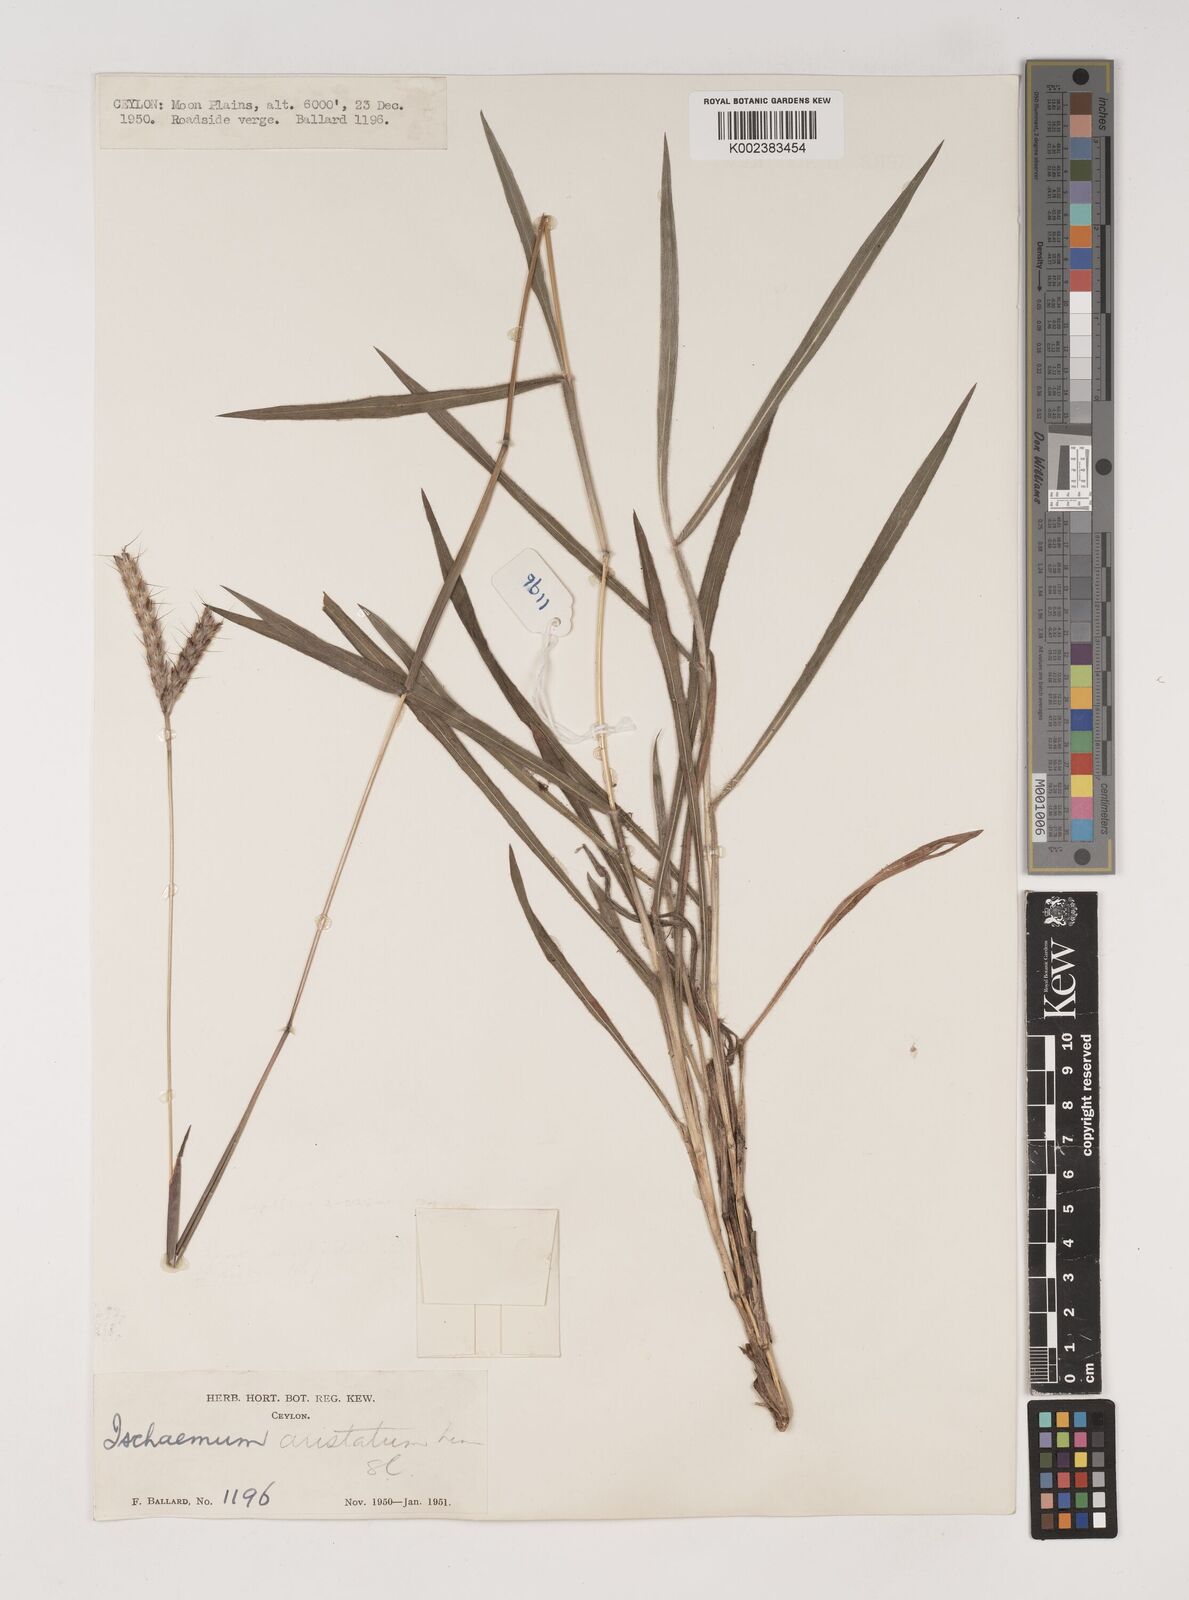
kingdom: Plantae
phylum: Tracheophyta
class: Liliopsida
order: Poales
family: Poaceae
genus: Polytrias
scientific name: Polytrias indica
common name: Indian murainagrass
